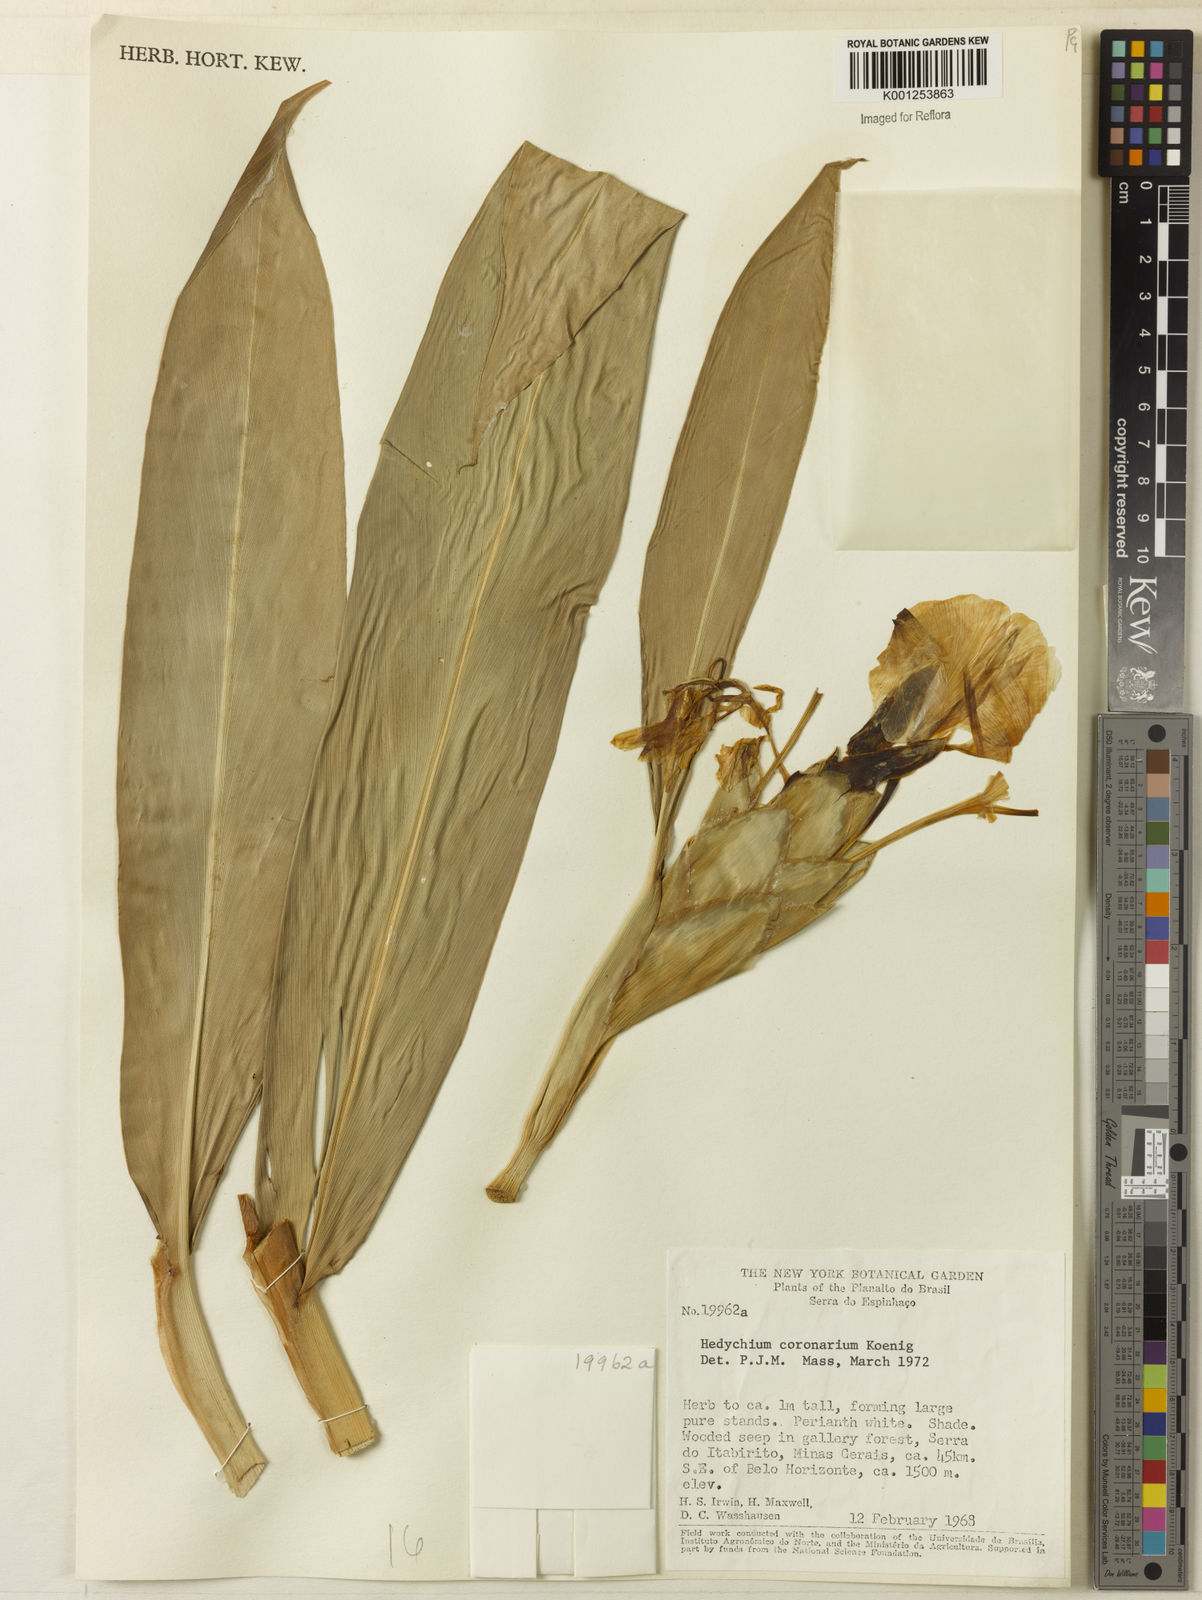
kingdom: Plantae
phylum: Tracheophyta
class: Liliopsida
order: Zingiberales
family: Zingiberaceae
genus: Hedychium
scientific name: Hedychium coronarium
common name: White garland-lily
